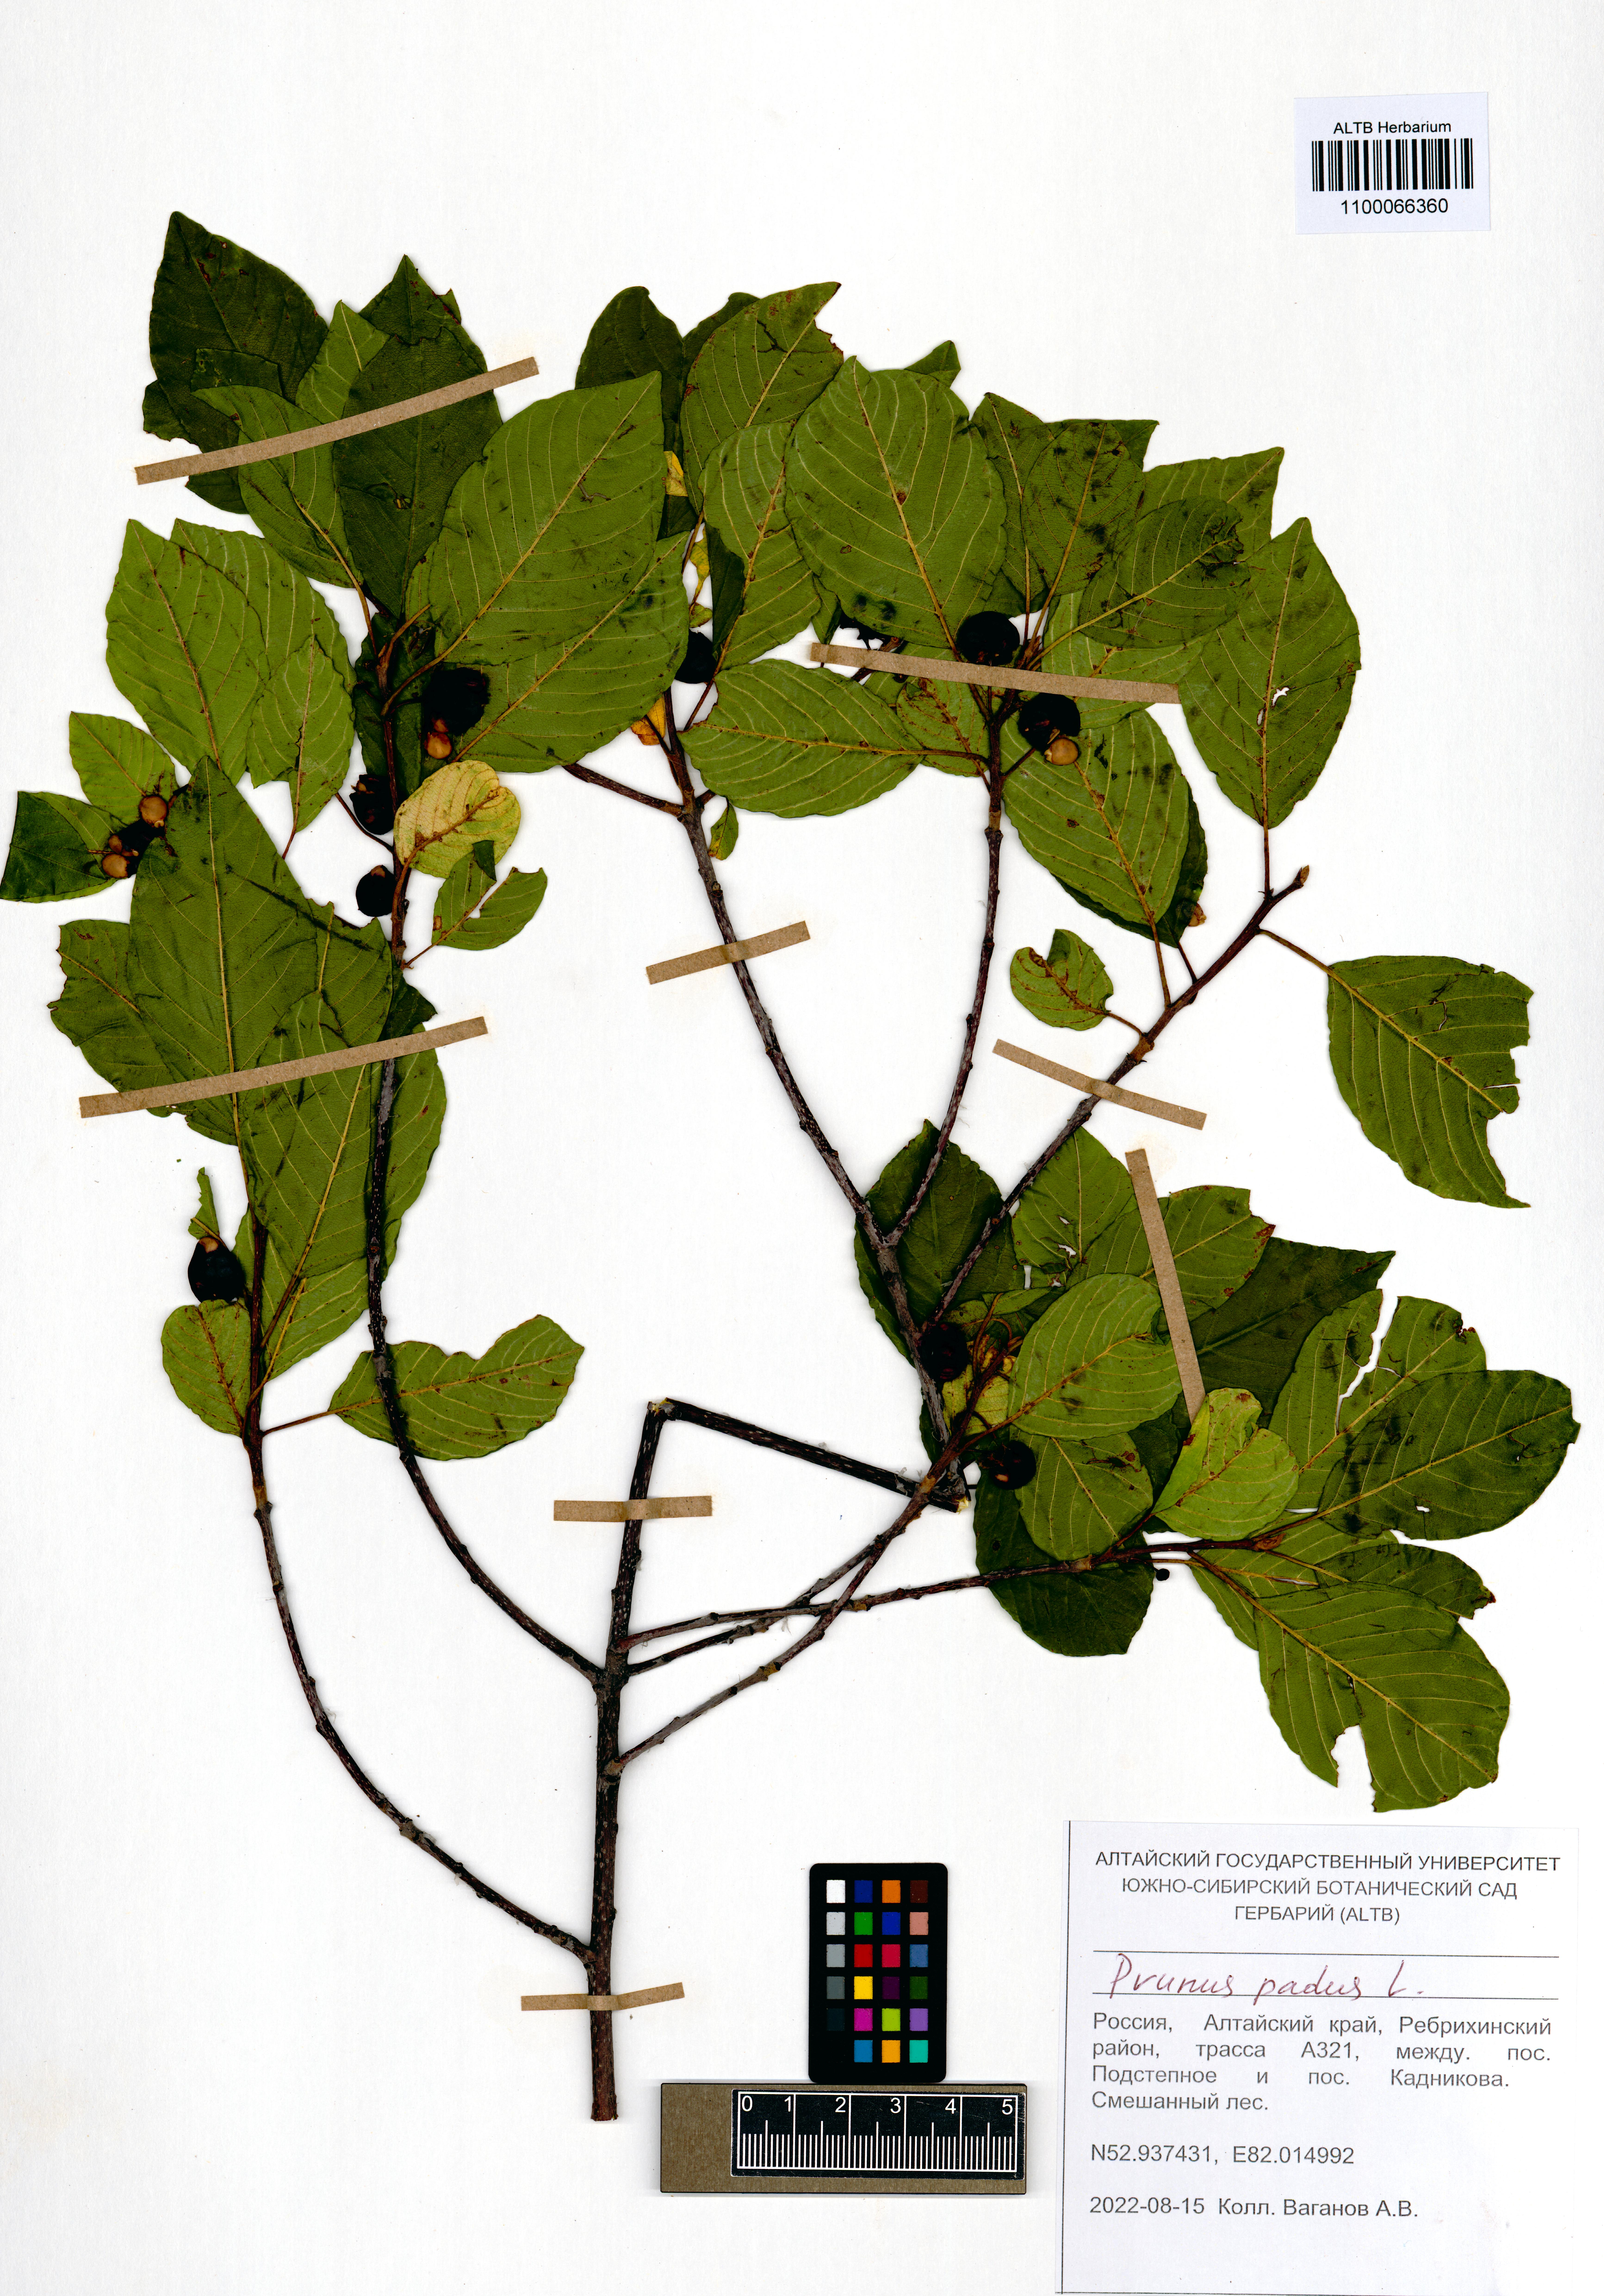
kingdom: Plantae
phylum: Tracheophyta
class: Magnoliopsida
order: Rosales
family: Rosaceae
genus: Prunus
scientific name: Prunus padus
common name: Bird cherry
